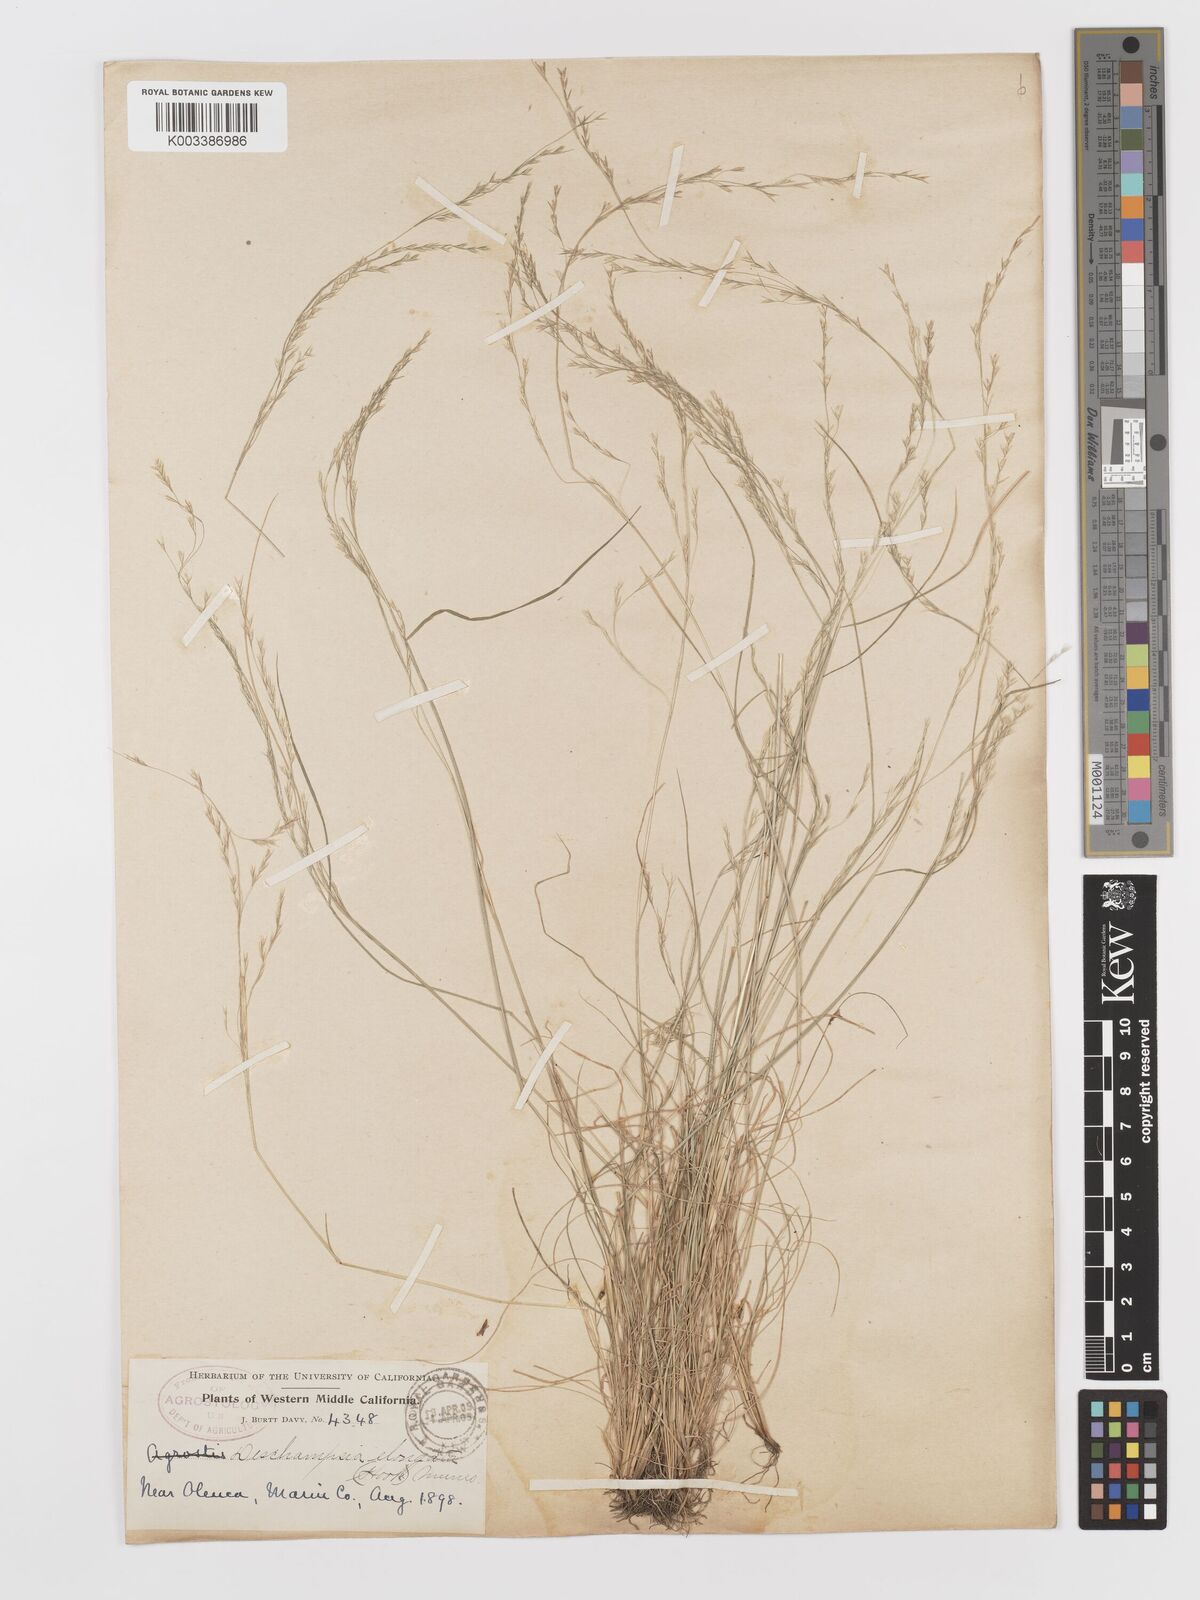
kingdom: Plantae
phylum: Tracheophyta
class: Liliopsida
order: Poales
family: Poaceae
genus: Deschampsia
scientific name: Deschampsia elongata
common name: Slender hairgrass
